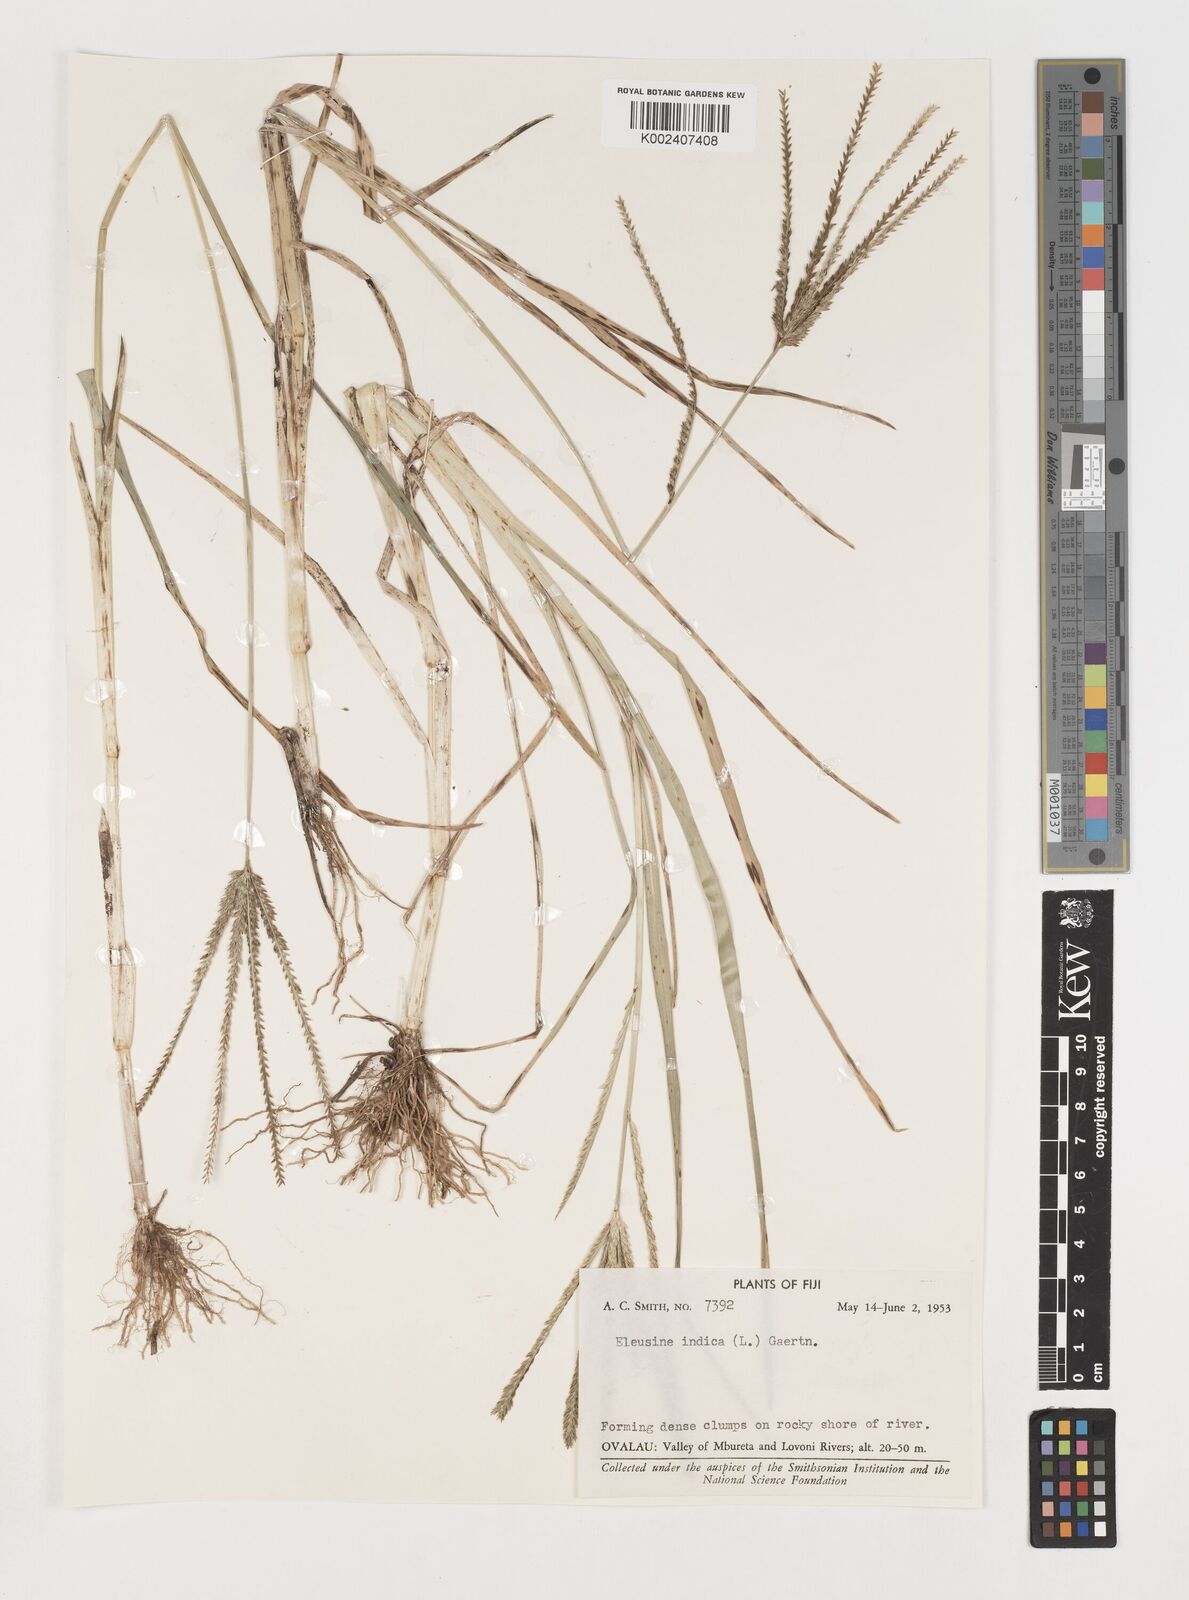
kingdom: Plantae
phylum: Tracheophyta
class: Liliopsida
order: Poales
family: Poaceae
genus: Eleusine
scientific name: Eleusine indica
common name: Yard-grass
